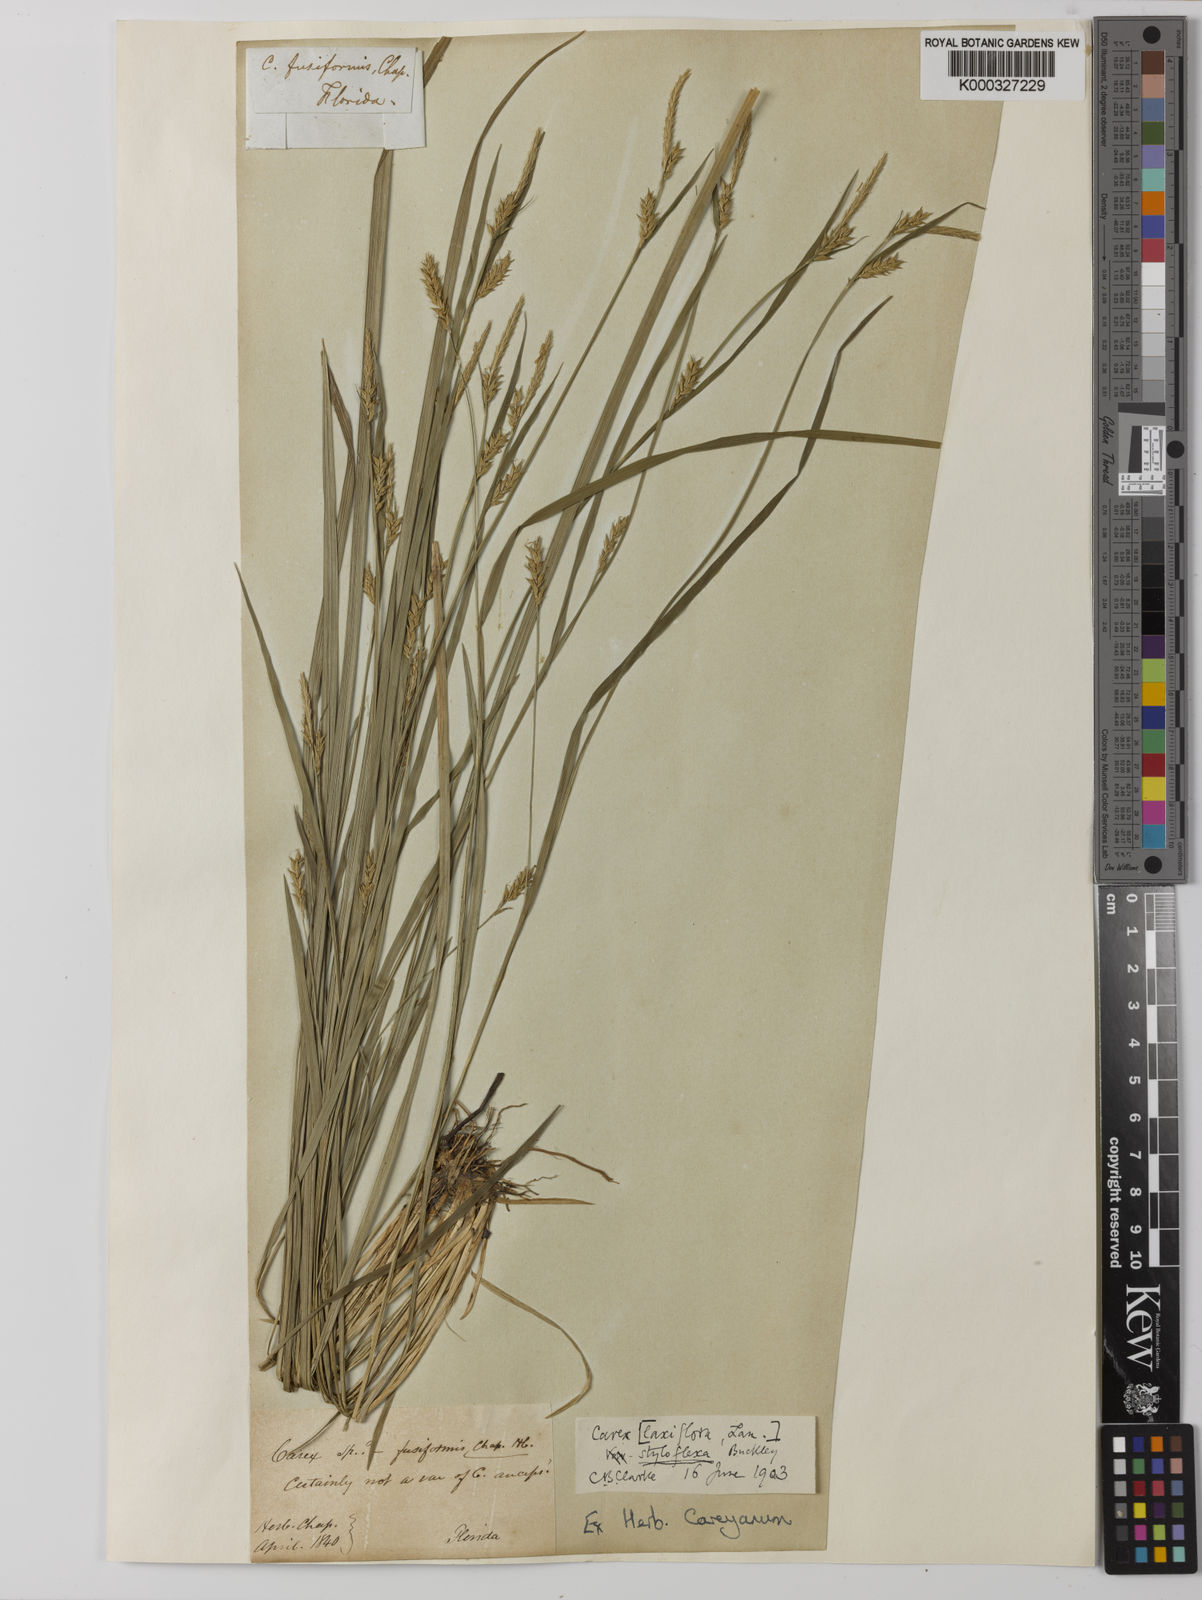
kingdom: Plantae
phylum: Tracheophyta
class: Liliopsida
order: Poales
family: Cyperaceae
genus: Carex
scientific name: Carex chapmanii
